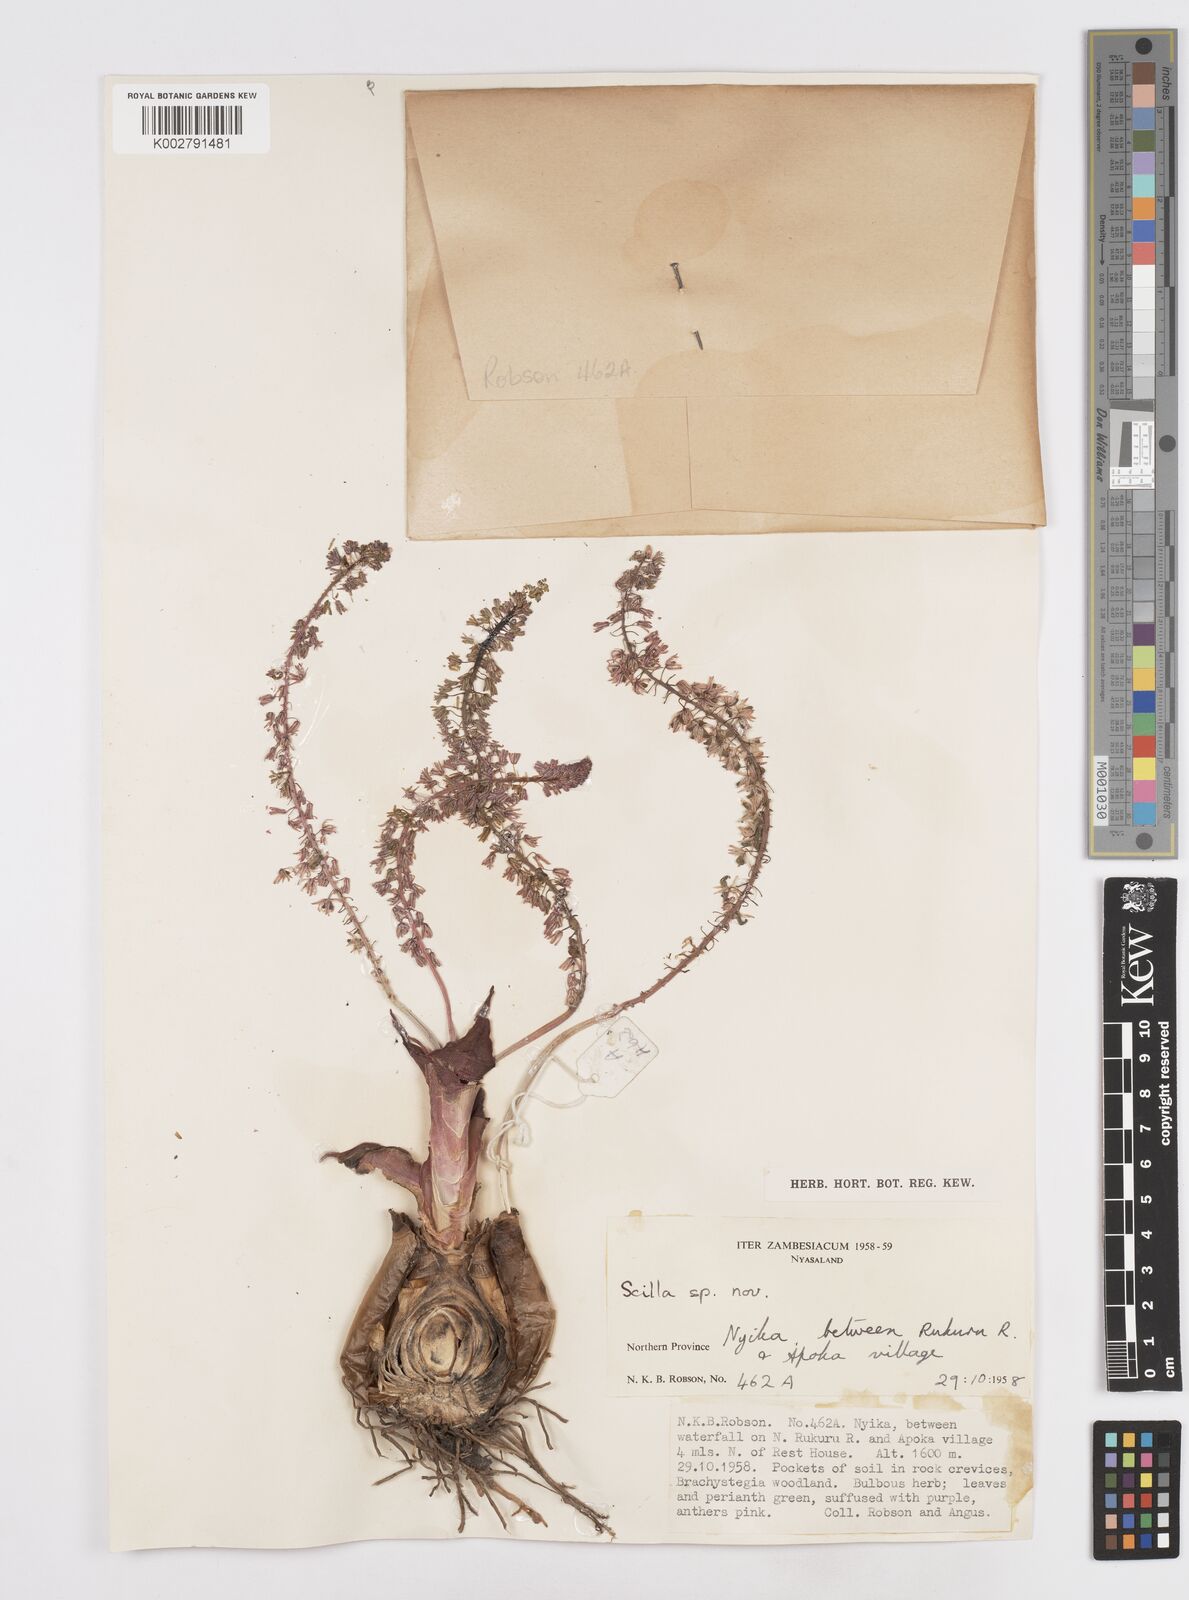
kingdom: Plantae
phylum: Tracheophyta
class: Liliopsida
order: Asparagales
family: Asparagaceae
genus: Scilla
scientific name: Scilla
